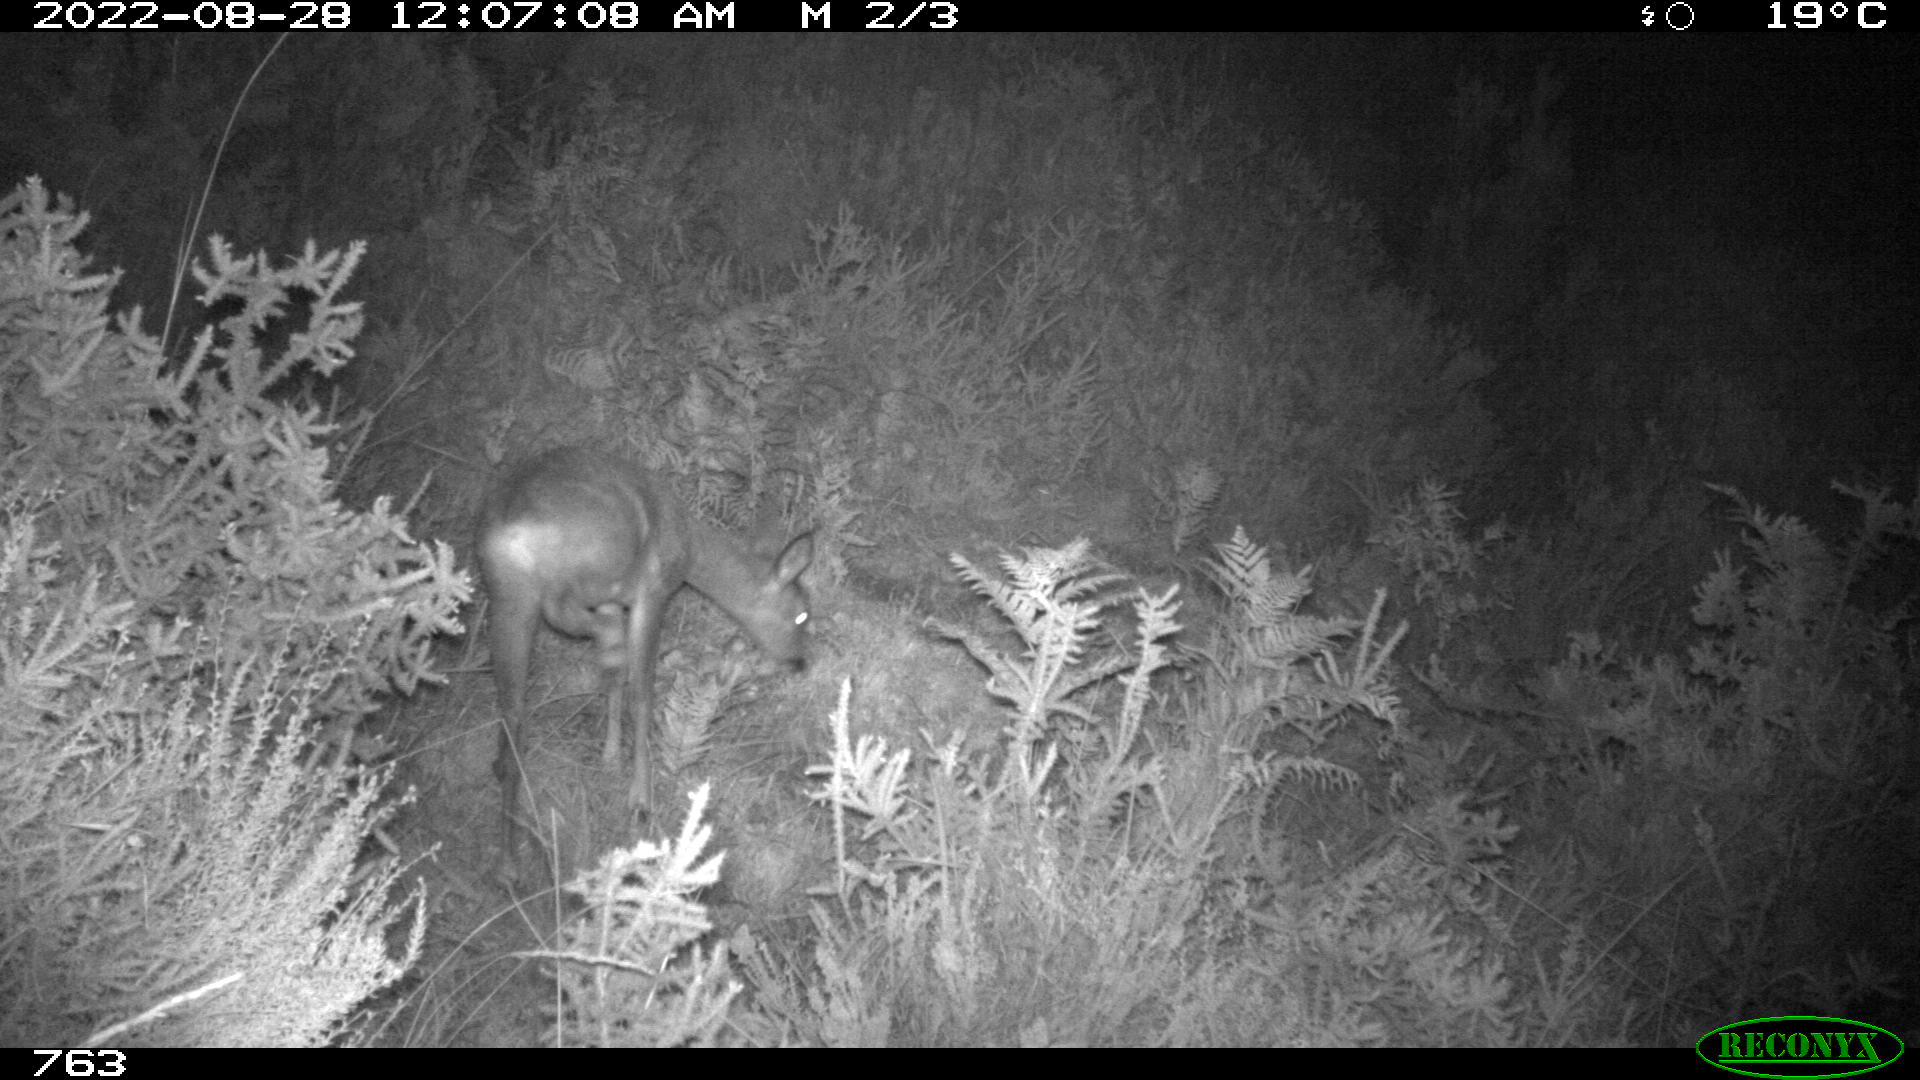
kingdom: Animalia
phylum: Chordata
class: Mammalia
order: Artiodactyla
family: Cervidae
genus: Capreolus
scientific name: Capreolus capreolus
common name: Western roe deer
